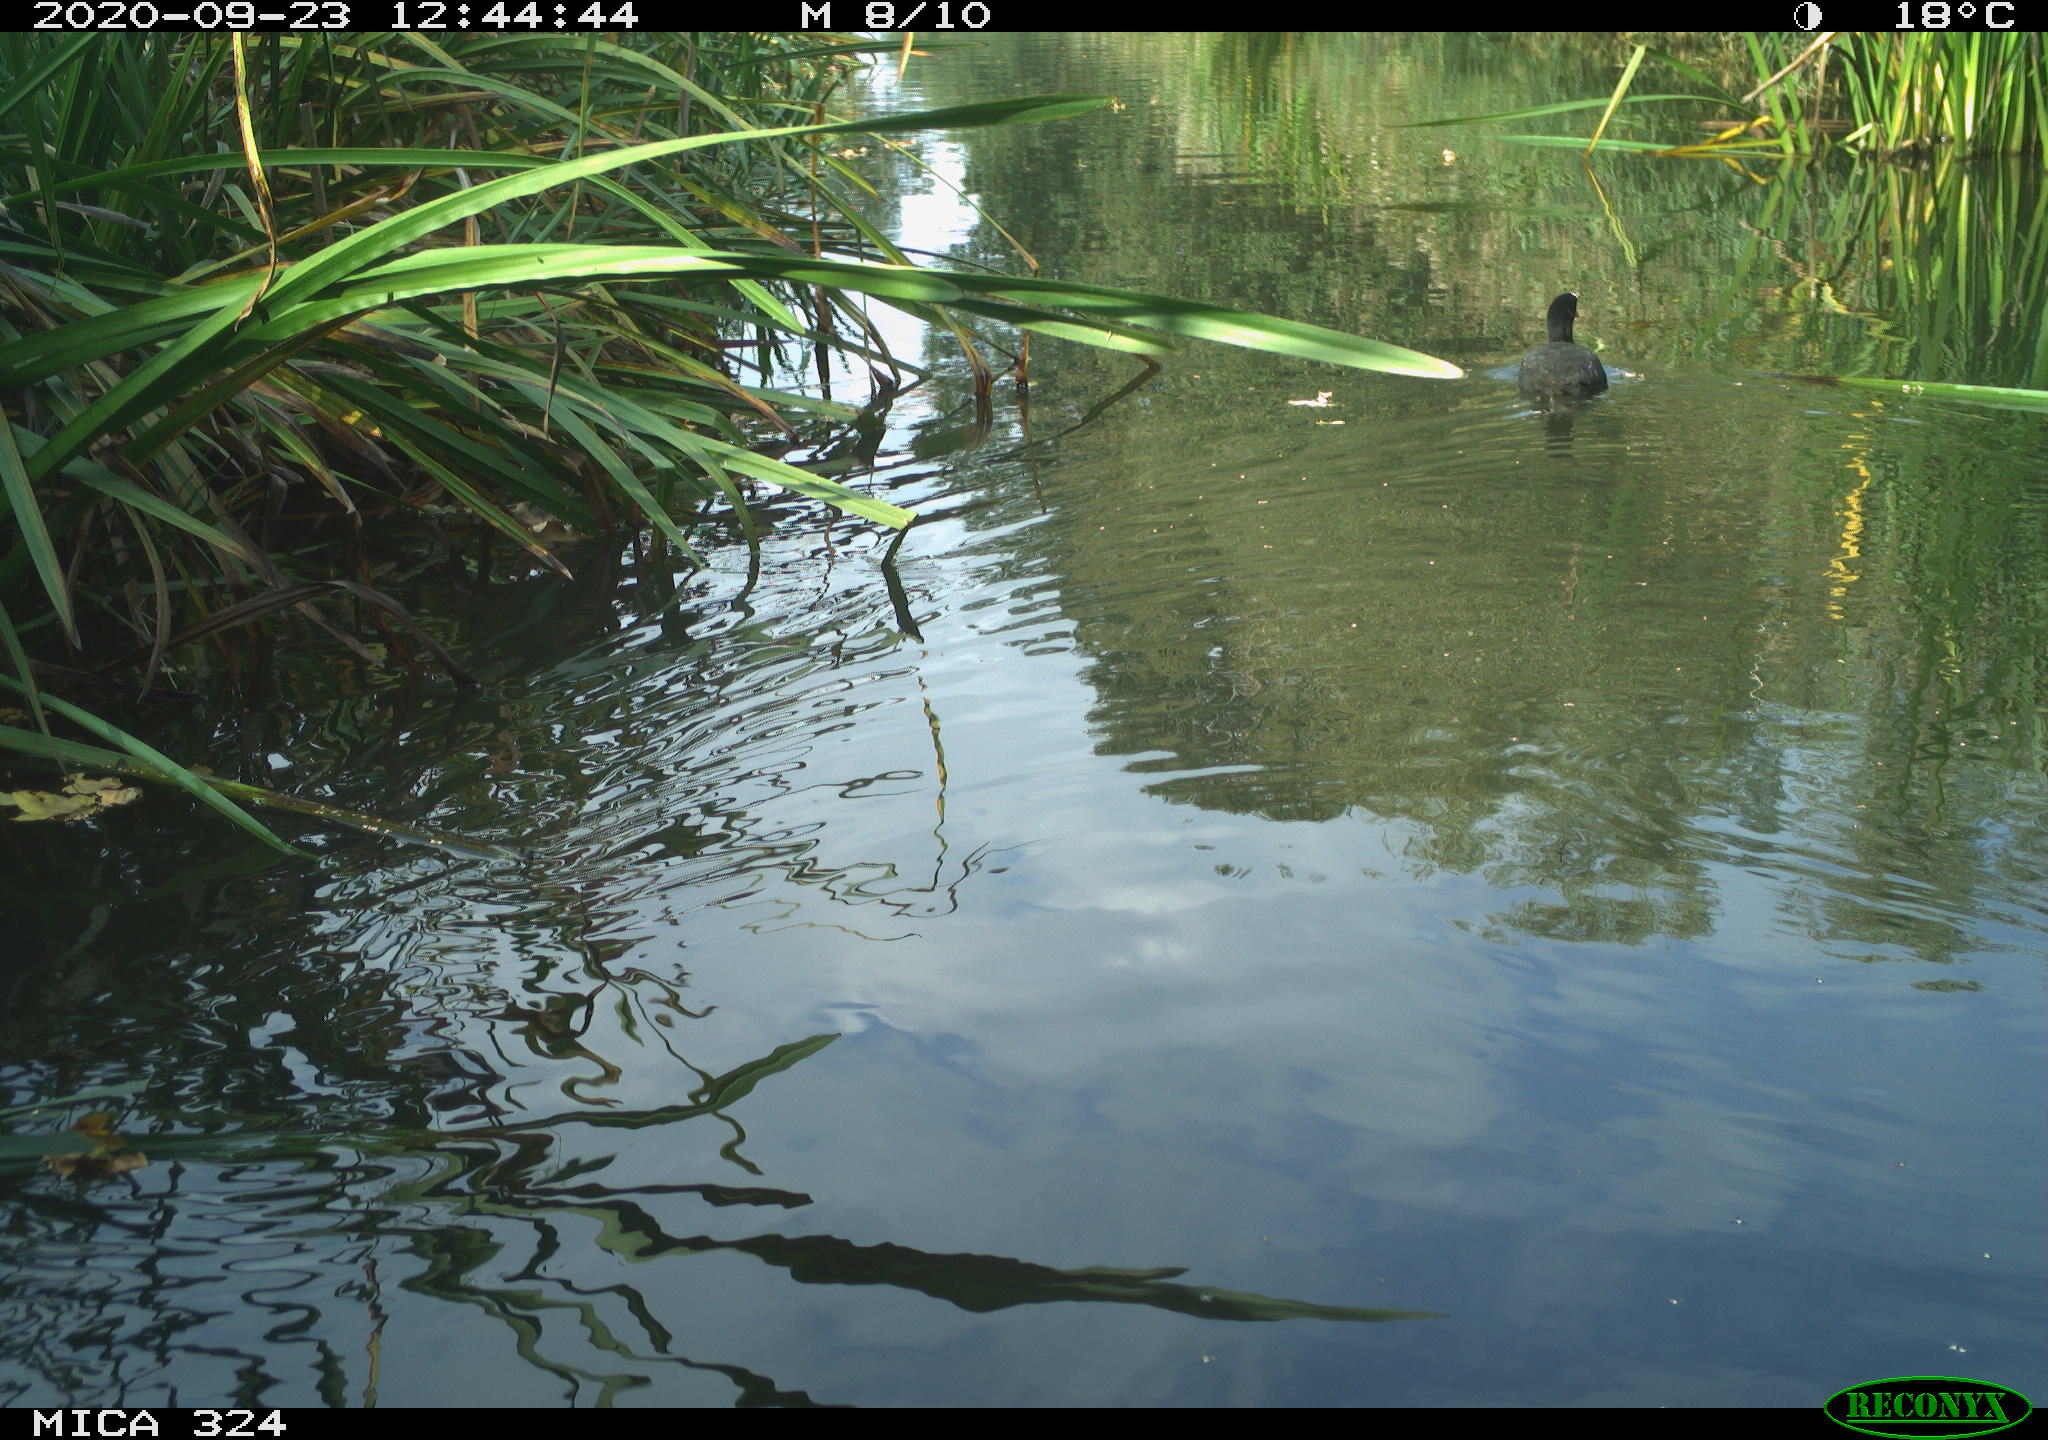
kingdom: Animalia
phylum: Chordata
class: Aves
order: Gruiformes
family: Rallidae
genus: Fulica
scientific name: Fulica atra
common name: Eurasian coot
